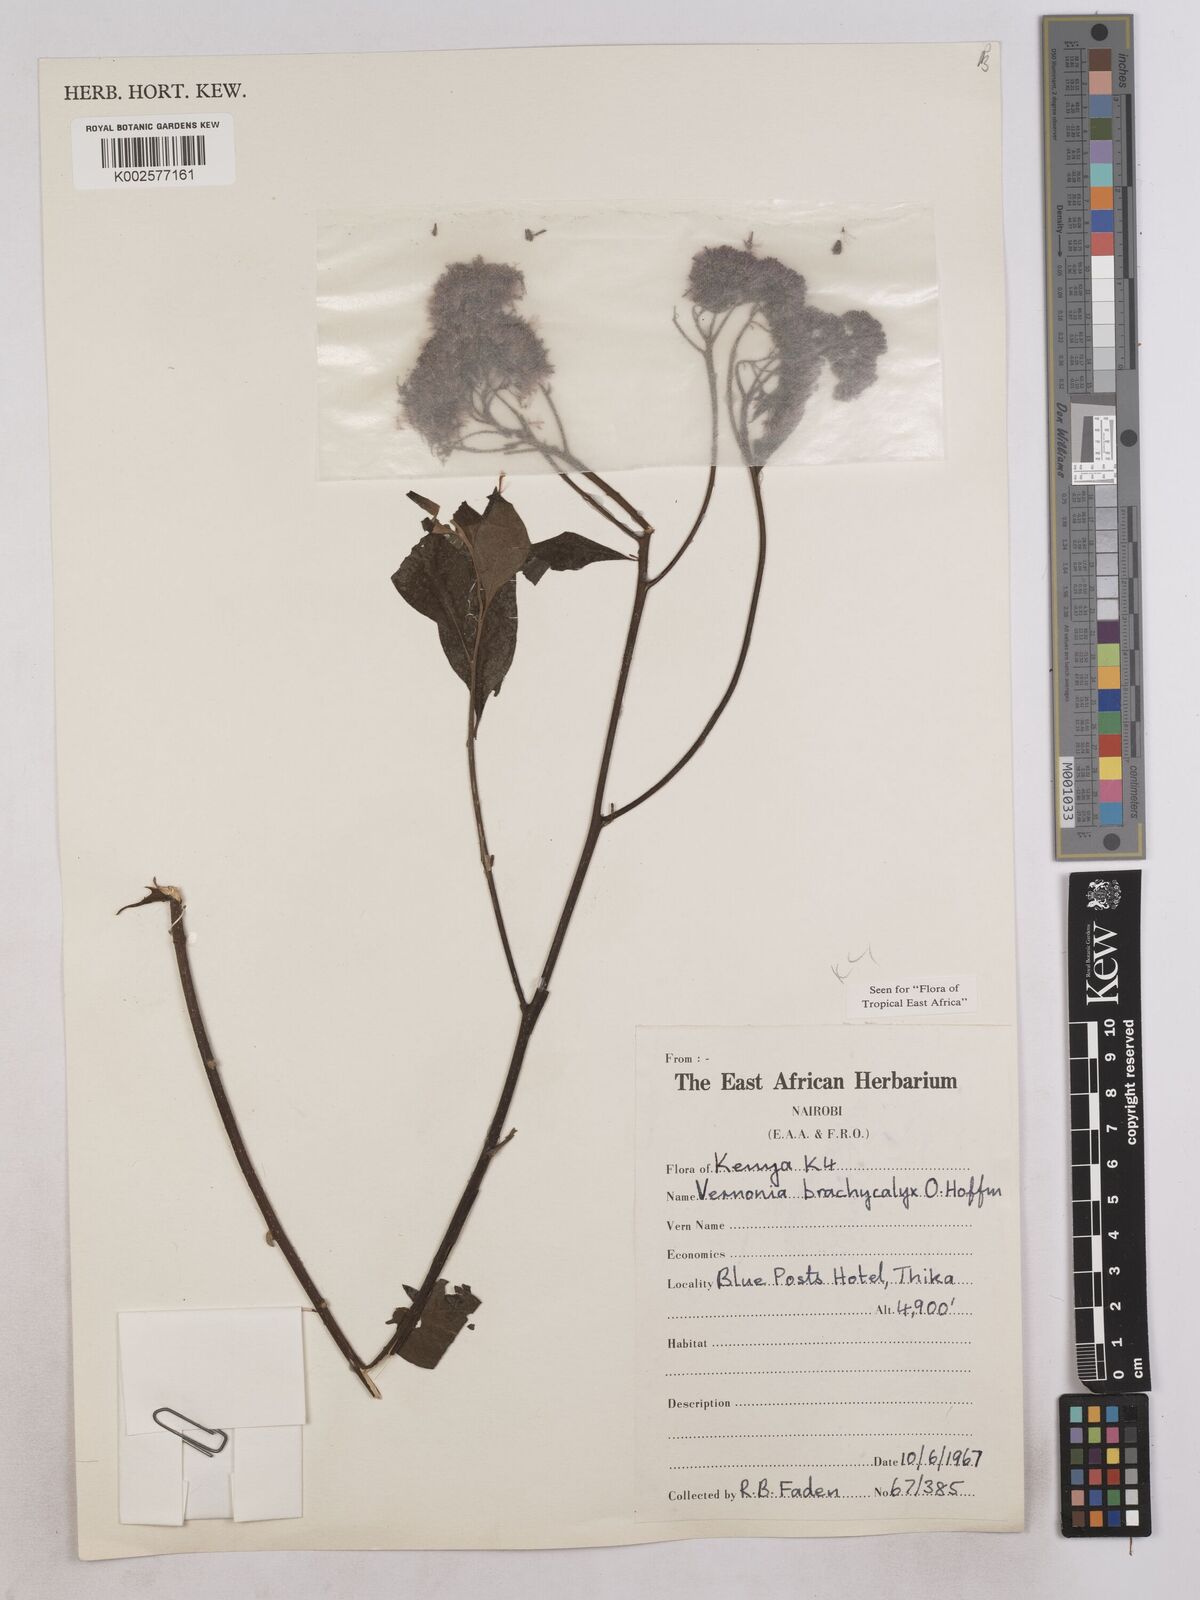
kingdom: Plantae
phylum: Tracheophyta
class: Magnoliopsida
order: Asterales
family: Asteraceae
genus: Hoffmannanthus
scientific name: Hoffmannanthus abbotianus
